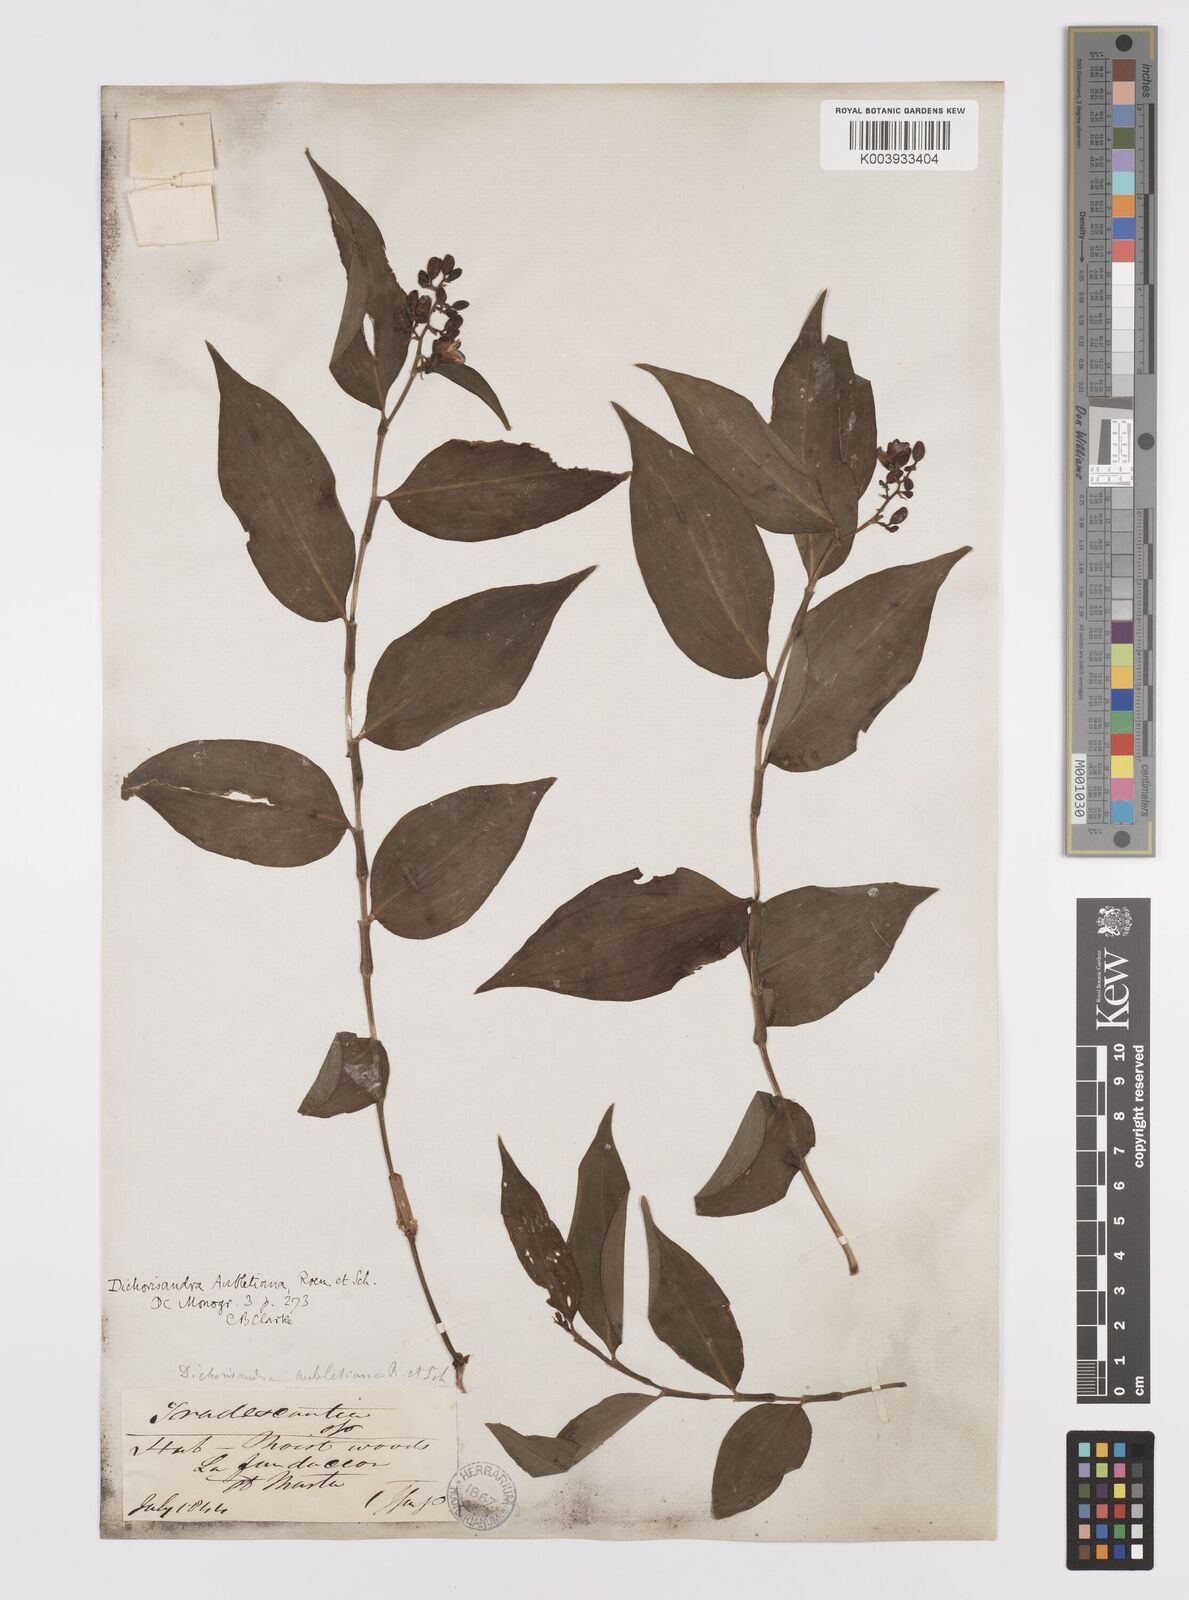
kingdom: Plantae
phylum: Tracheophyta
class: Liliopsida
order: Commelinales
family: Commelinaceae
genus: Dichorisandra
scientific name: Dichorisandra hexandra
